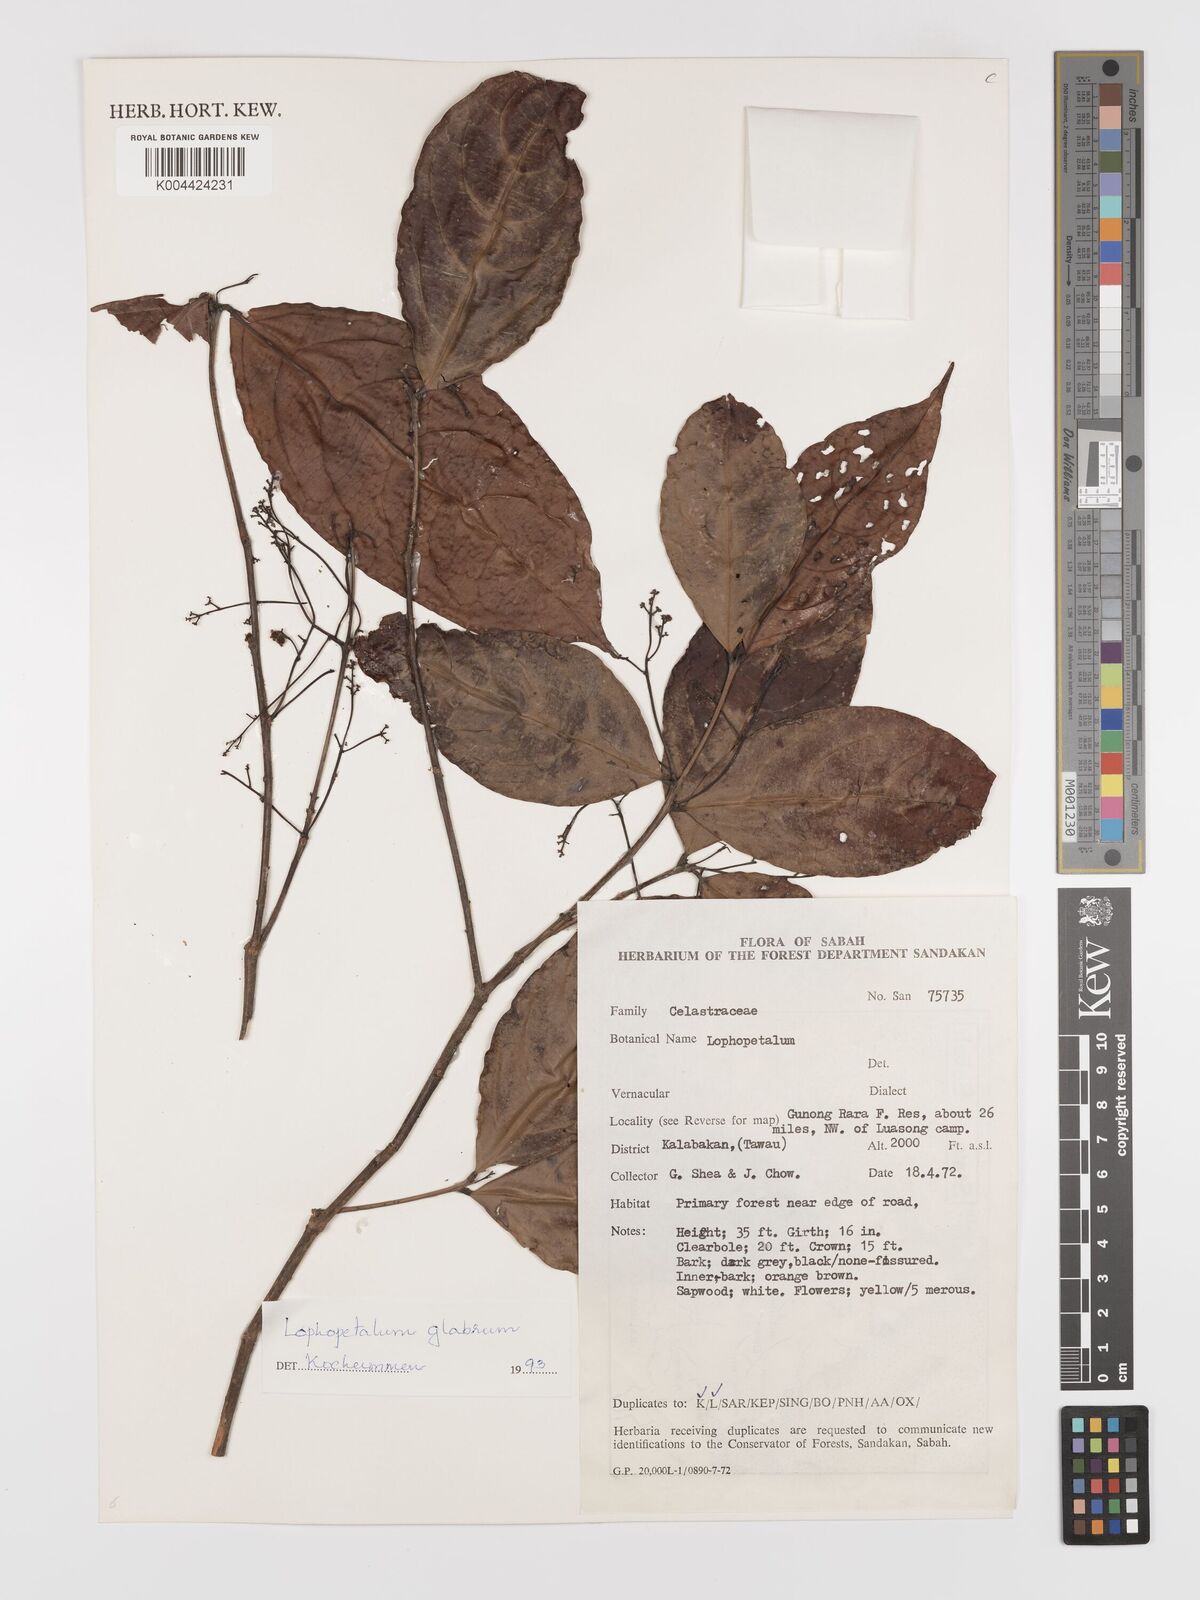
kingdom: Plantae
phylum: Tracheophyta
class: Magnoliopsida
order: Celastrales
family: Celastraceae
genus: Lophopetalum
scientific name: Lophopetalum glabrum
